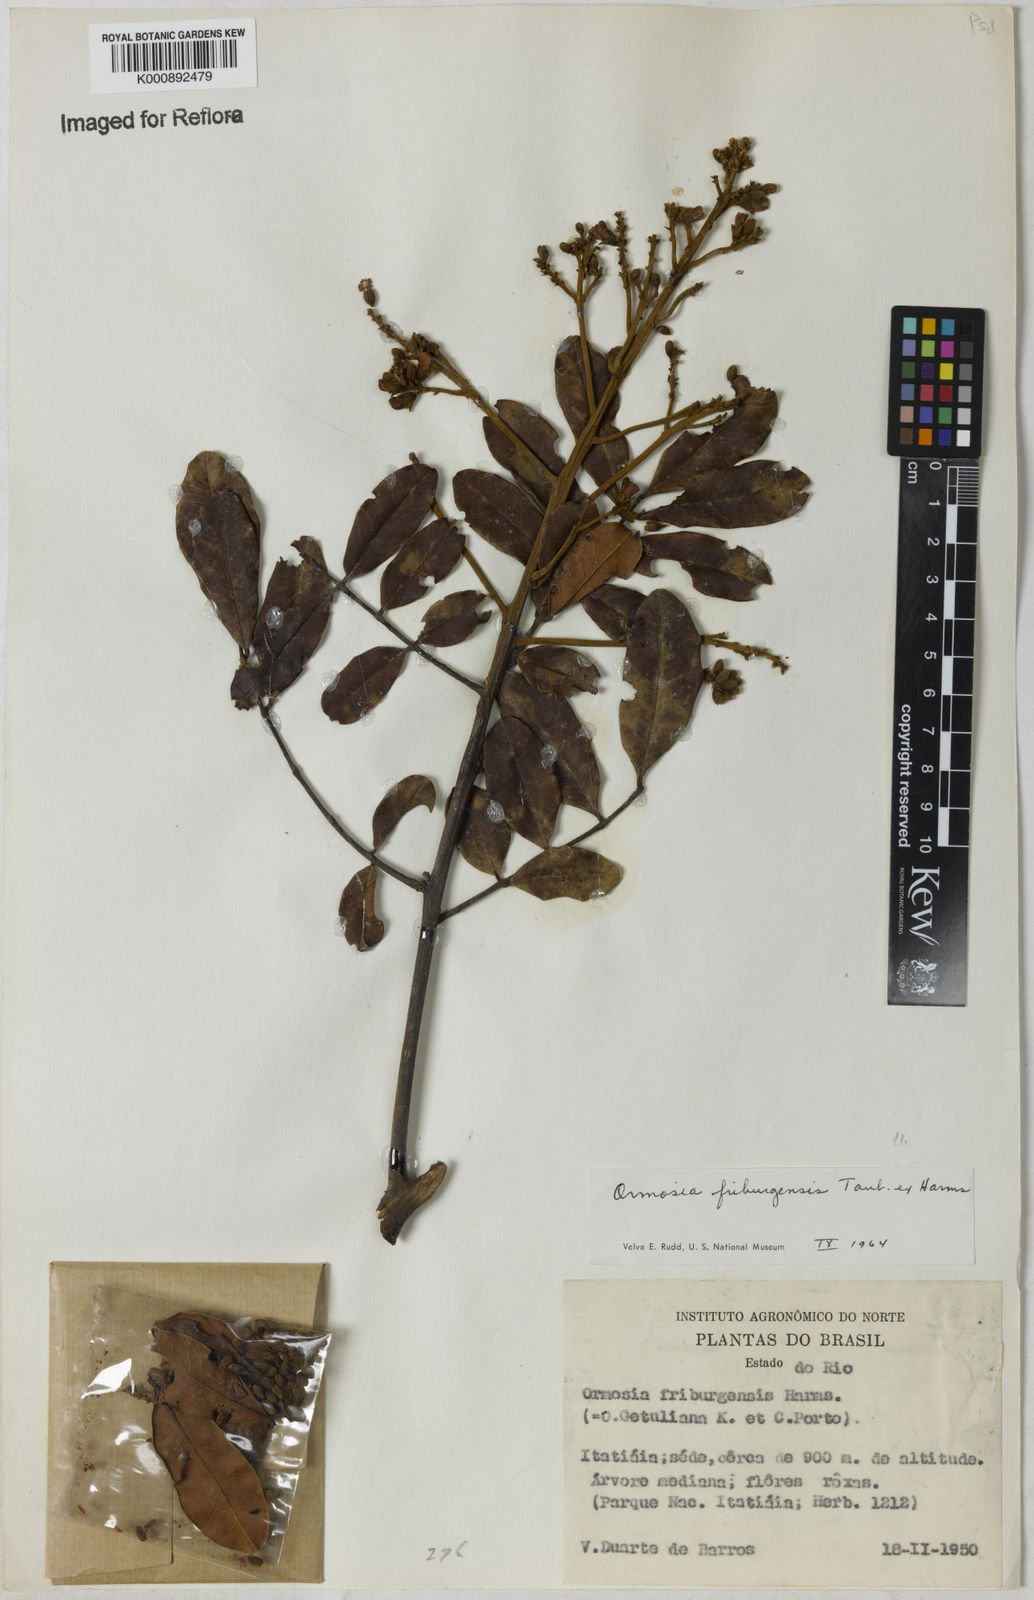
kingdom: Plantae
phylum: Tracheophyta
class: Magnoliopsida
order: Fabales
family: Fabaceae
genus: Ormosia
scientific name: Ormosia friburgensis
